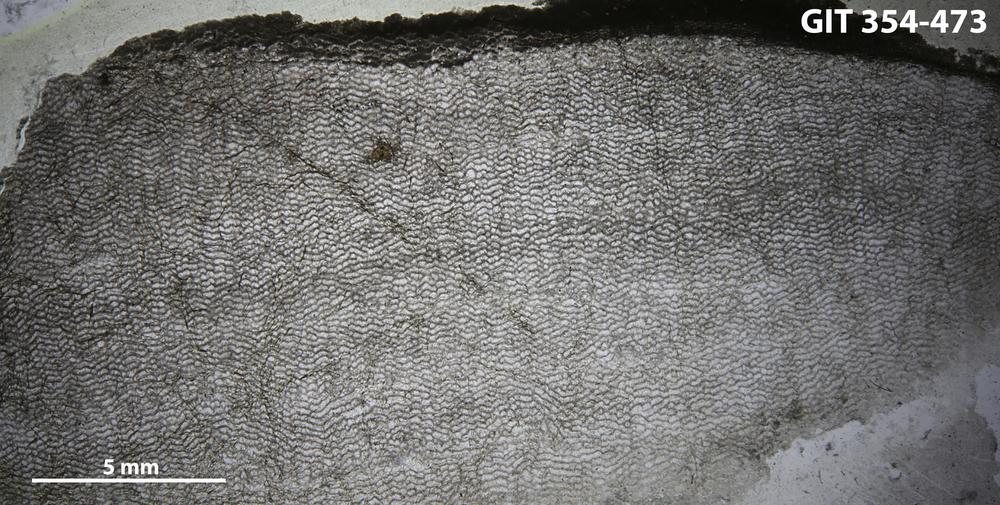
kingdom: Animalia
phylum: Porifera
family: Ecclimadictyidae
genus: Ecclimadictyon
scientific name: Ecclimadictyon Clathrodictyon fastigiatum
